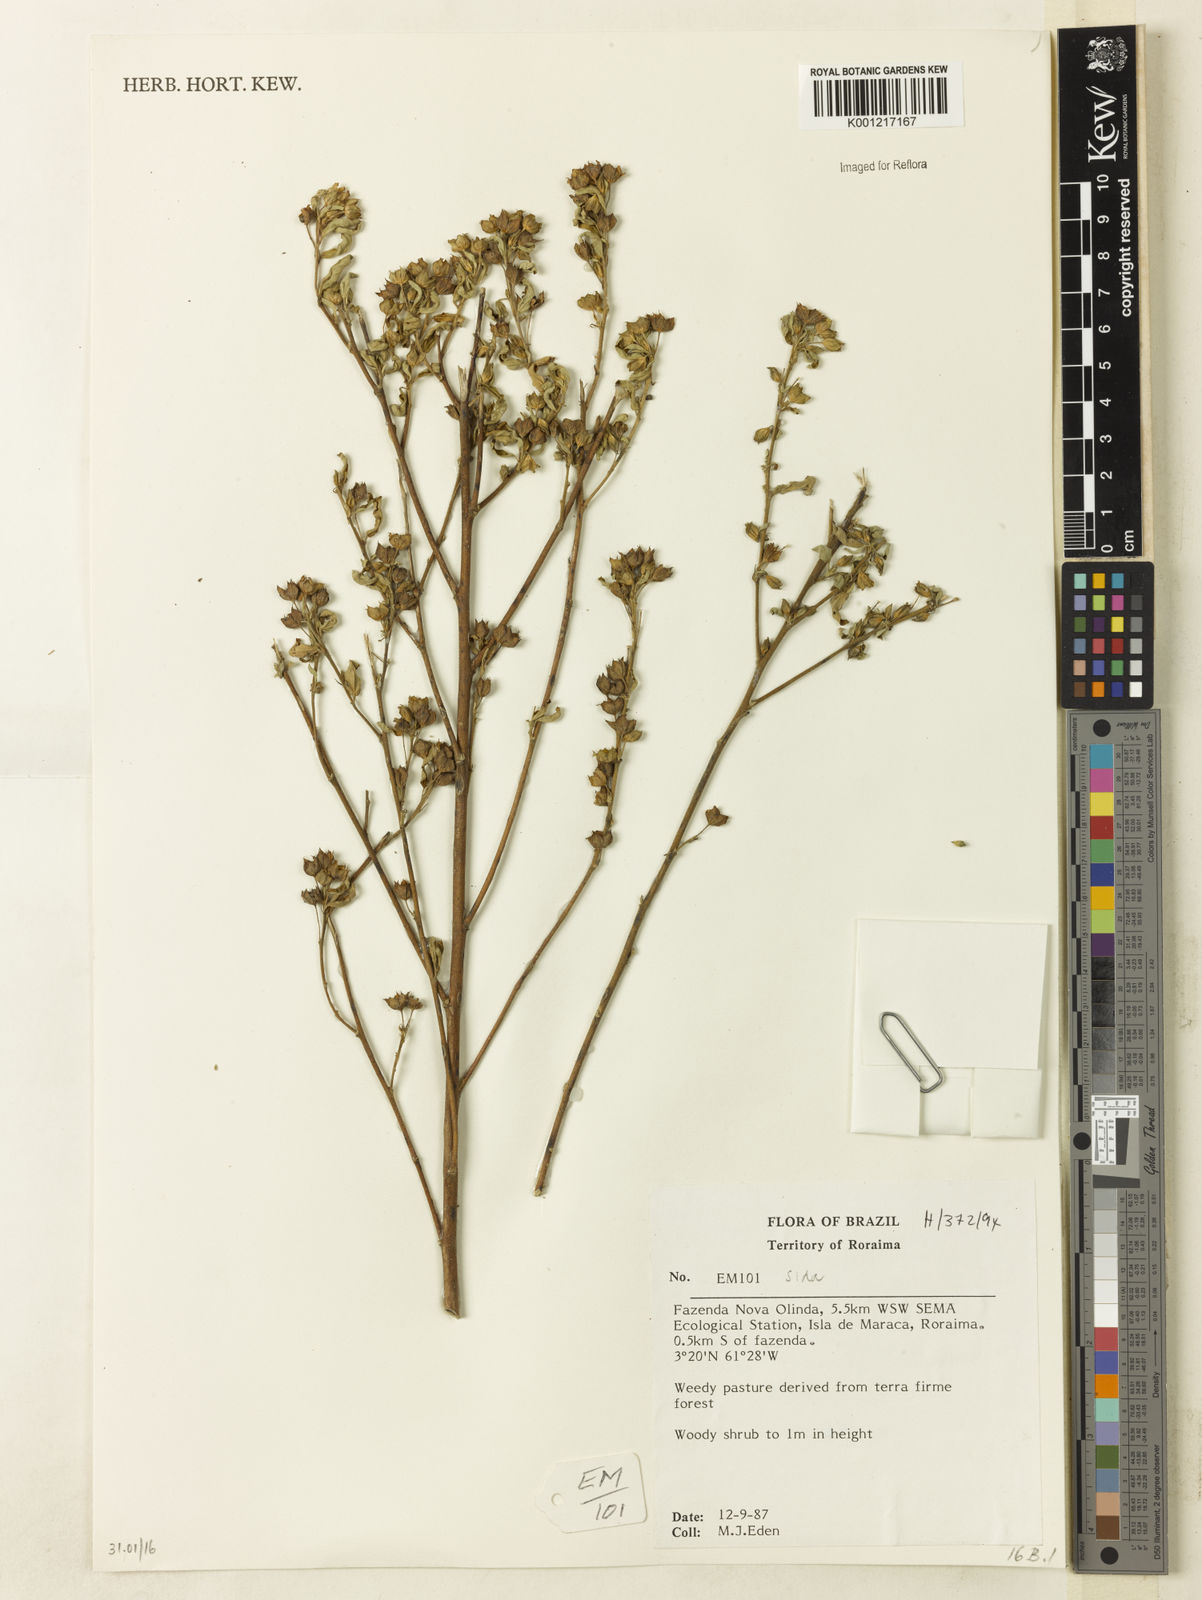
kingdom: Plantae
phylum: Tracheophyta
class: Magnoliopsida
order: Malvales
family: Malvaceae
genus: Sida
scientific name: Sida
